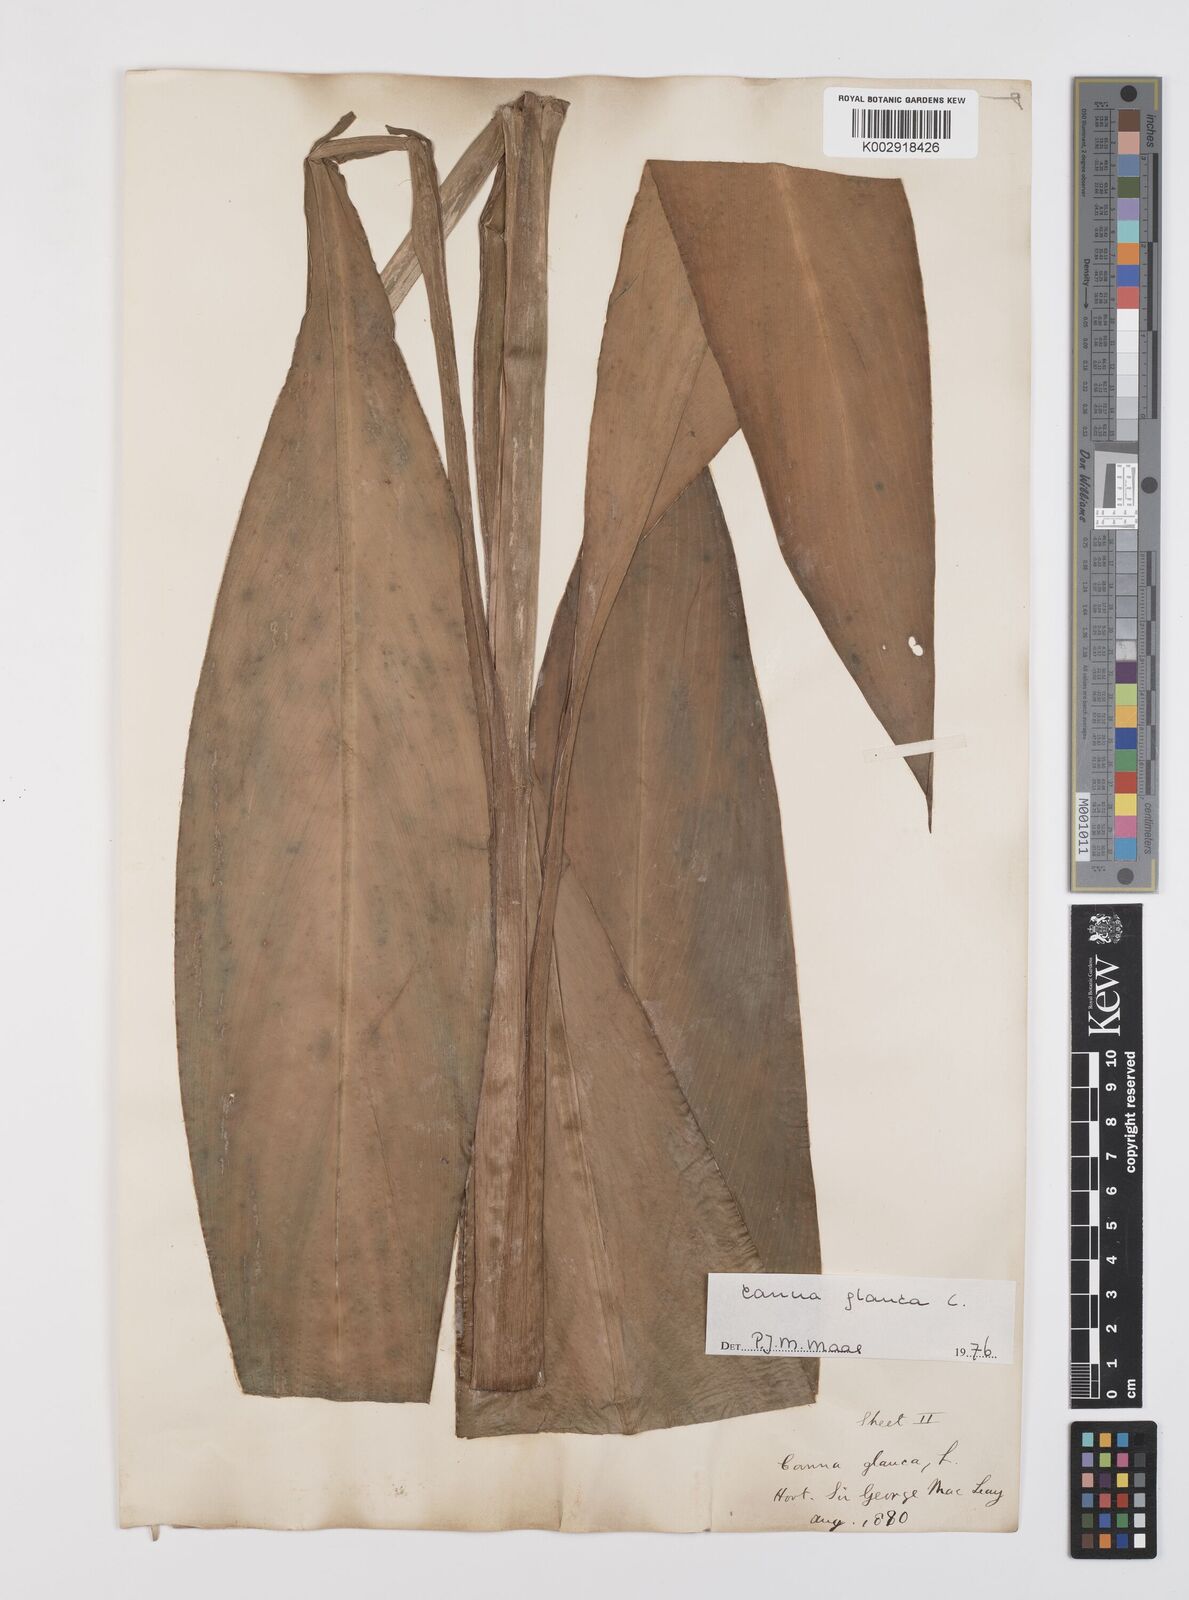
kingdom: Plantae
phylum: Tracheophyta
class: Liliopsida
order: Zingiberales
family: Cannaceae
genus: Canna
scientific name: Canna glauca
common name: Louisiana canna
